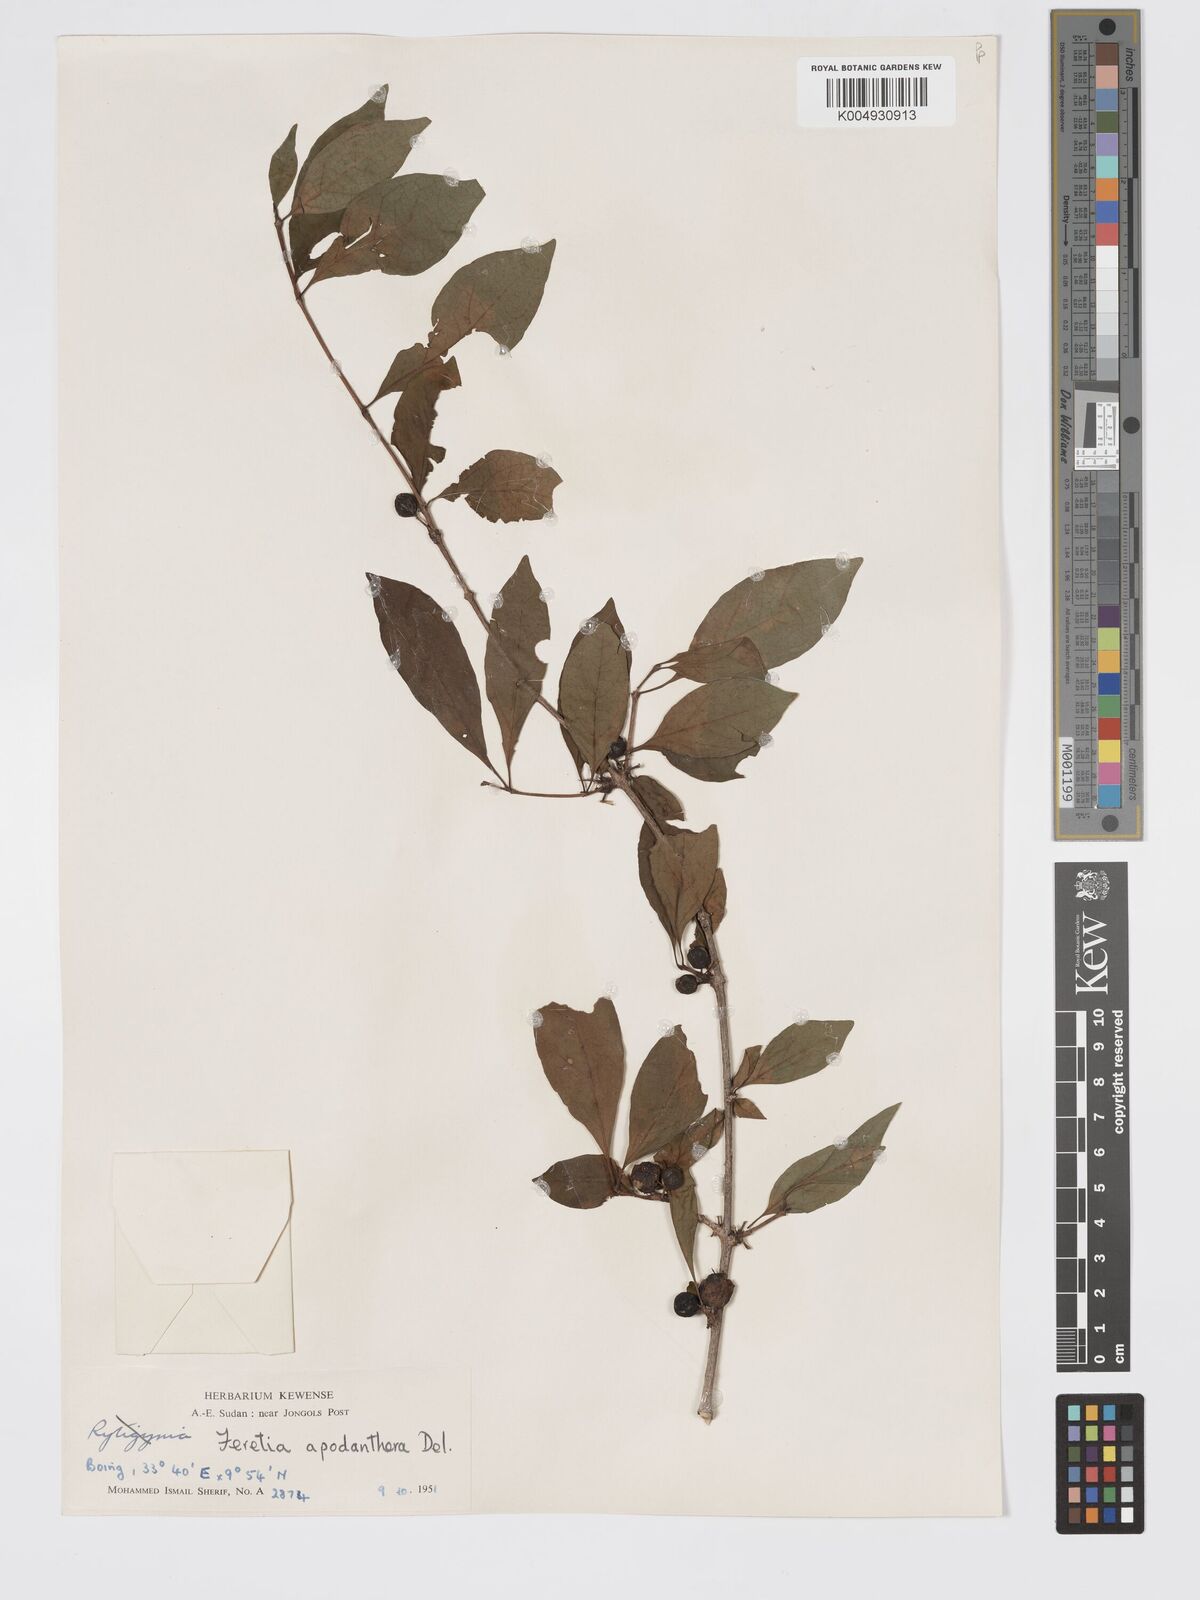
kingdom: Plantae
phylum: Tracheophyta
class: Magnoliopsida
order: Gentianales
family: Rubiaceae
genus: Feretia
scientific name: Feretia apodanthera
